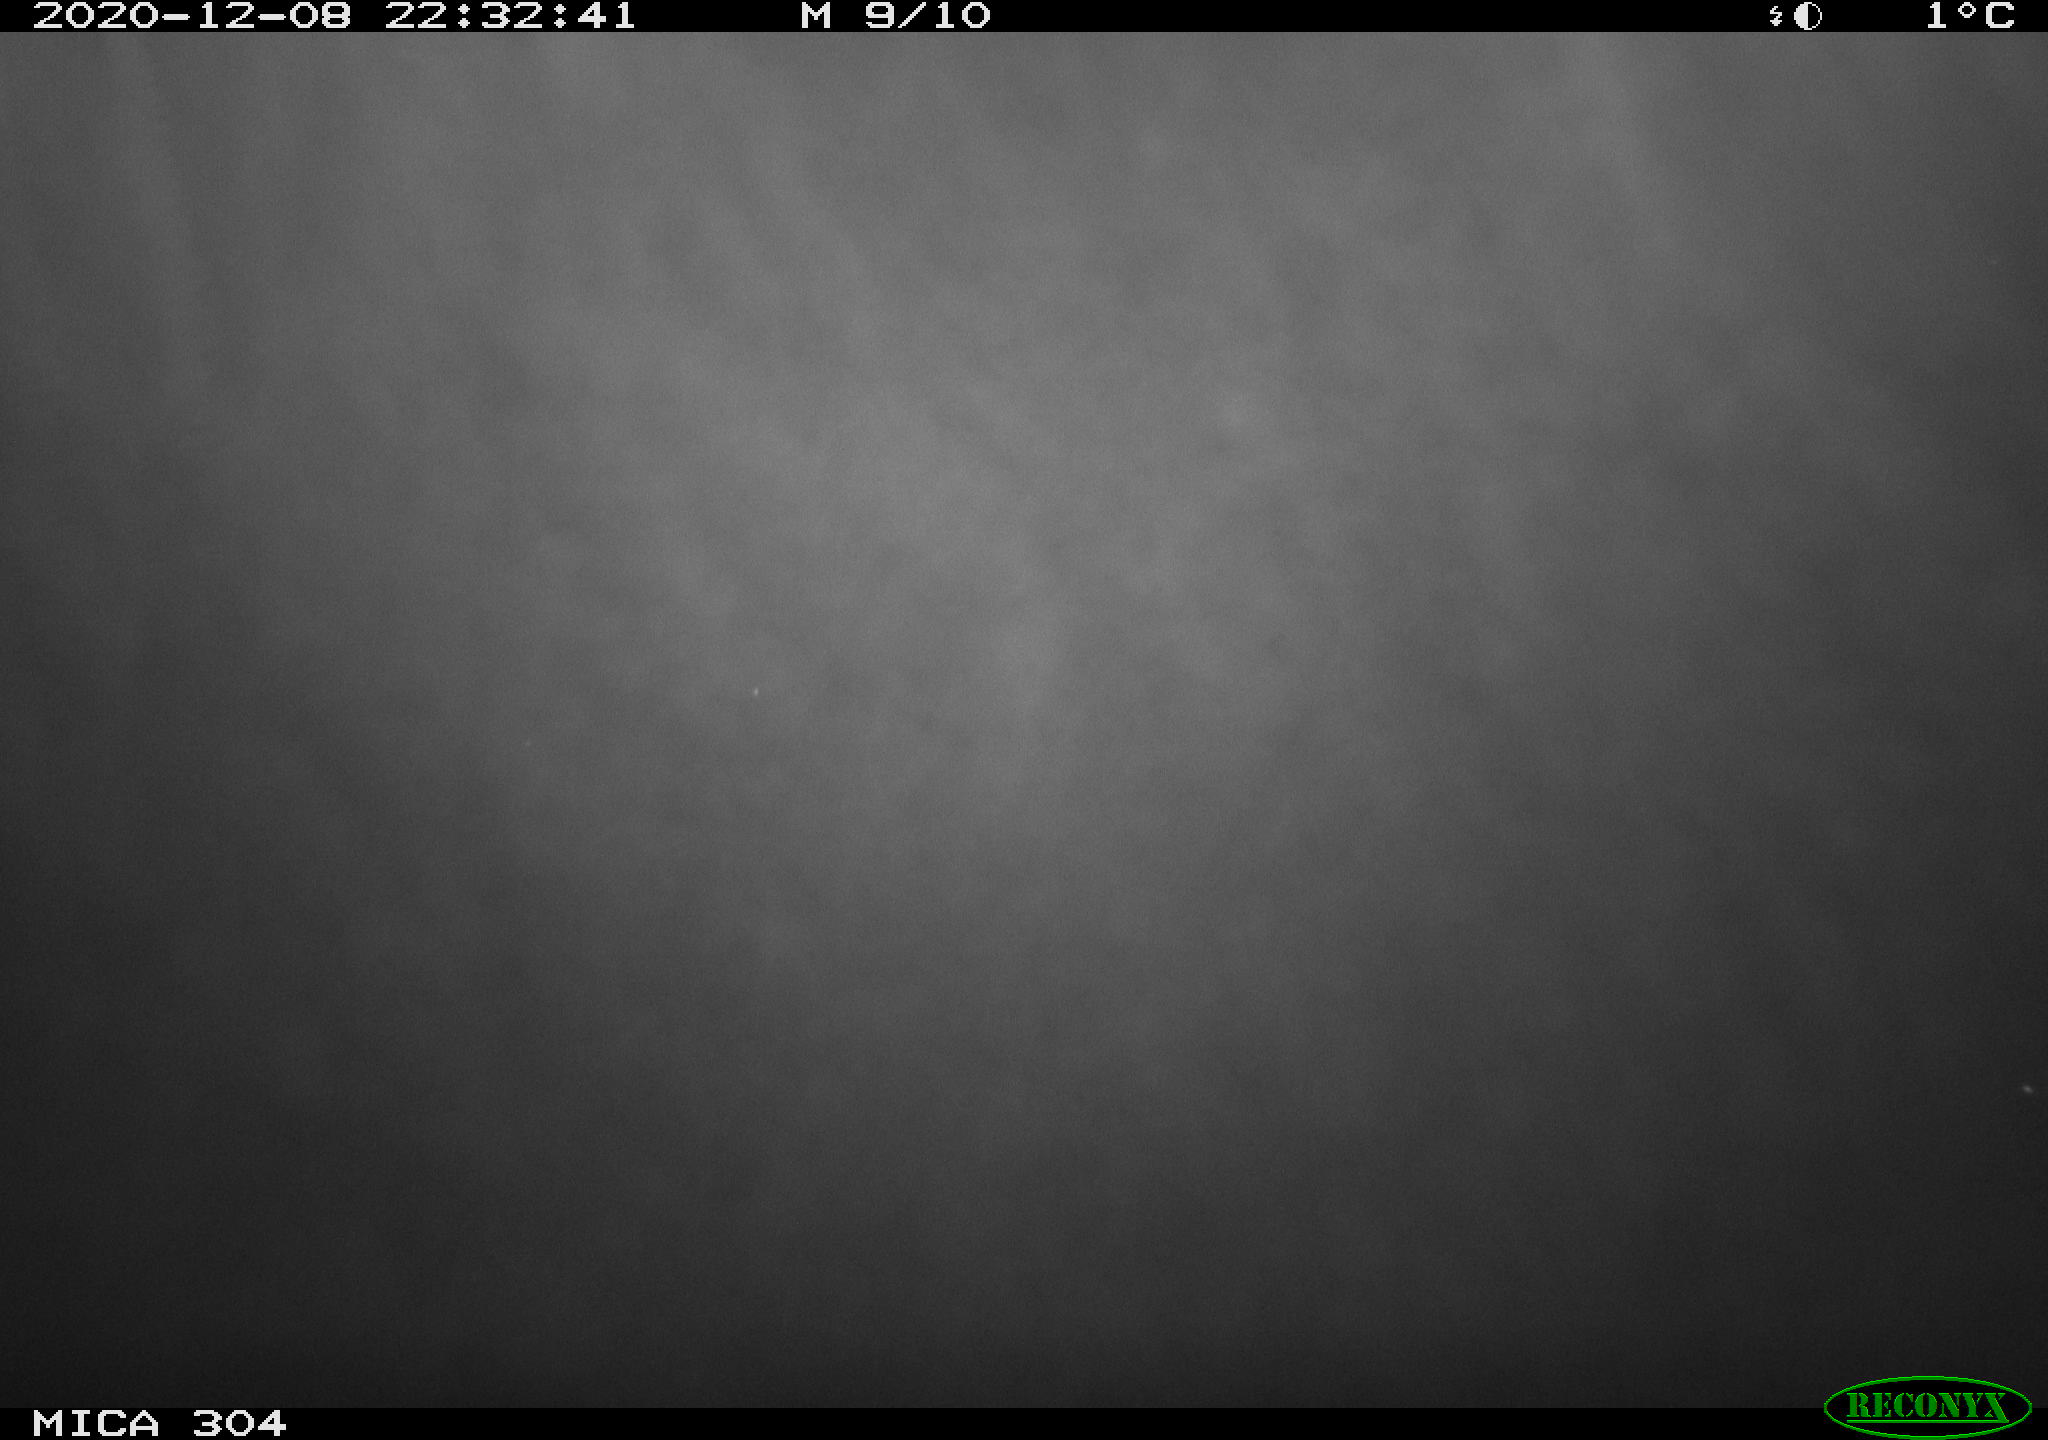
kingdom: Animalia
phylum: Chordata
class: Aves
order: Gruiformes
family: Rallidae
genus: Gallinula
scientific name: Gallinula chloropus
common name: Common moorhen
